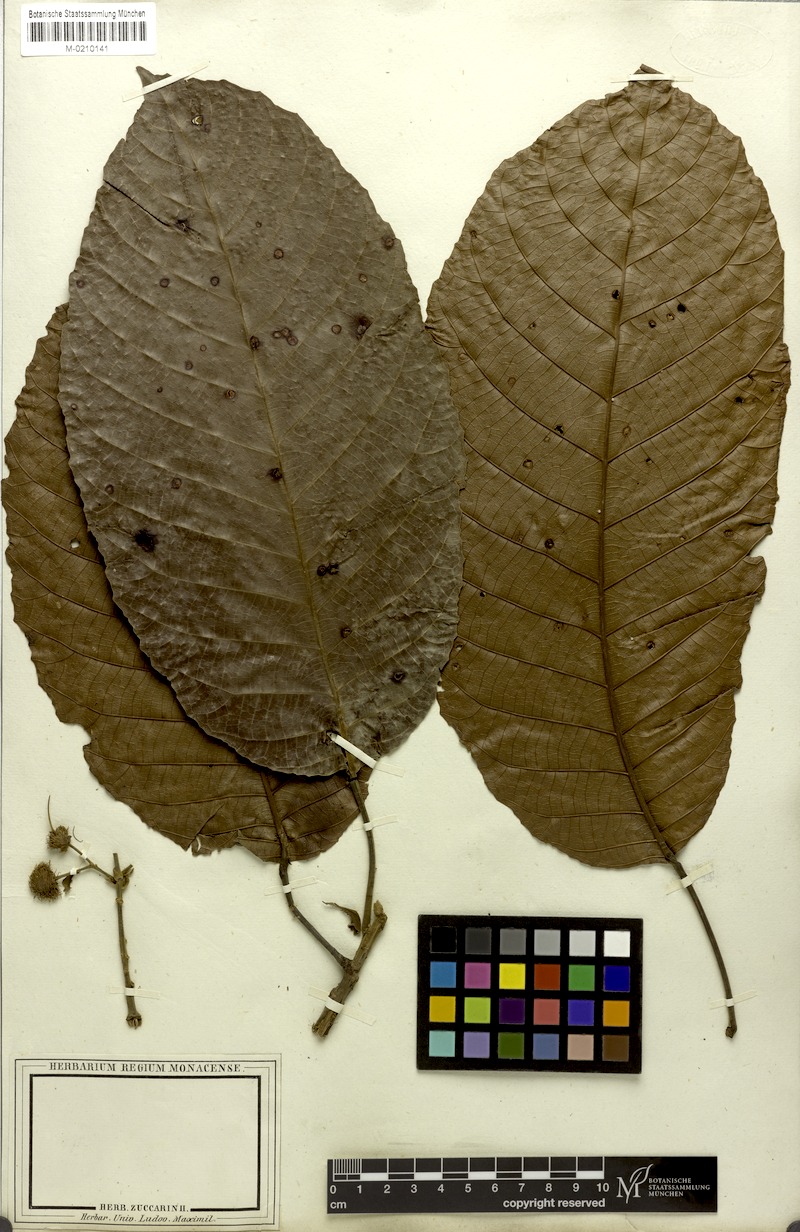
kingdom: Plantae
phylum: Tracheophyta
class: Magnoliopsida
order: Oxalidales
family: Elaeocarpaceae
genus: Sloanea
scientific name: Sloanea dentata
